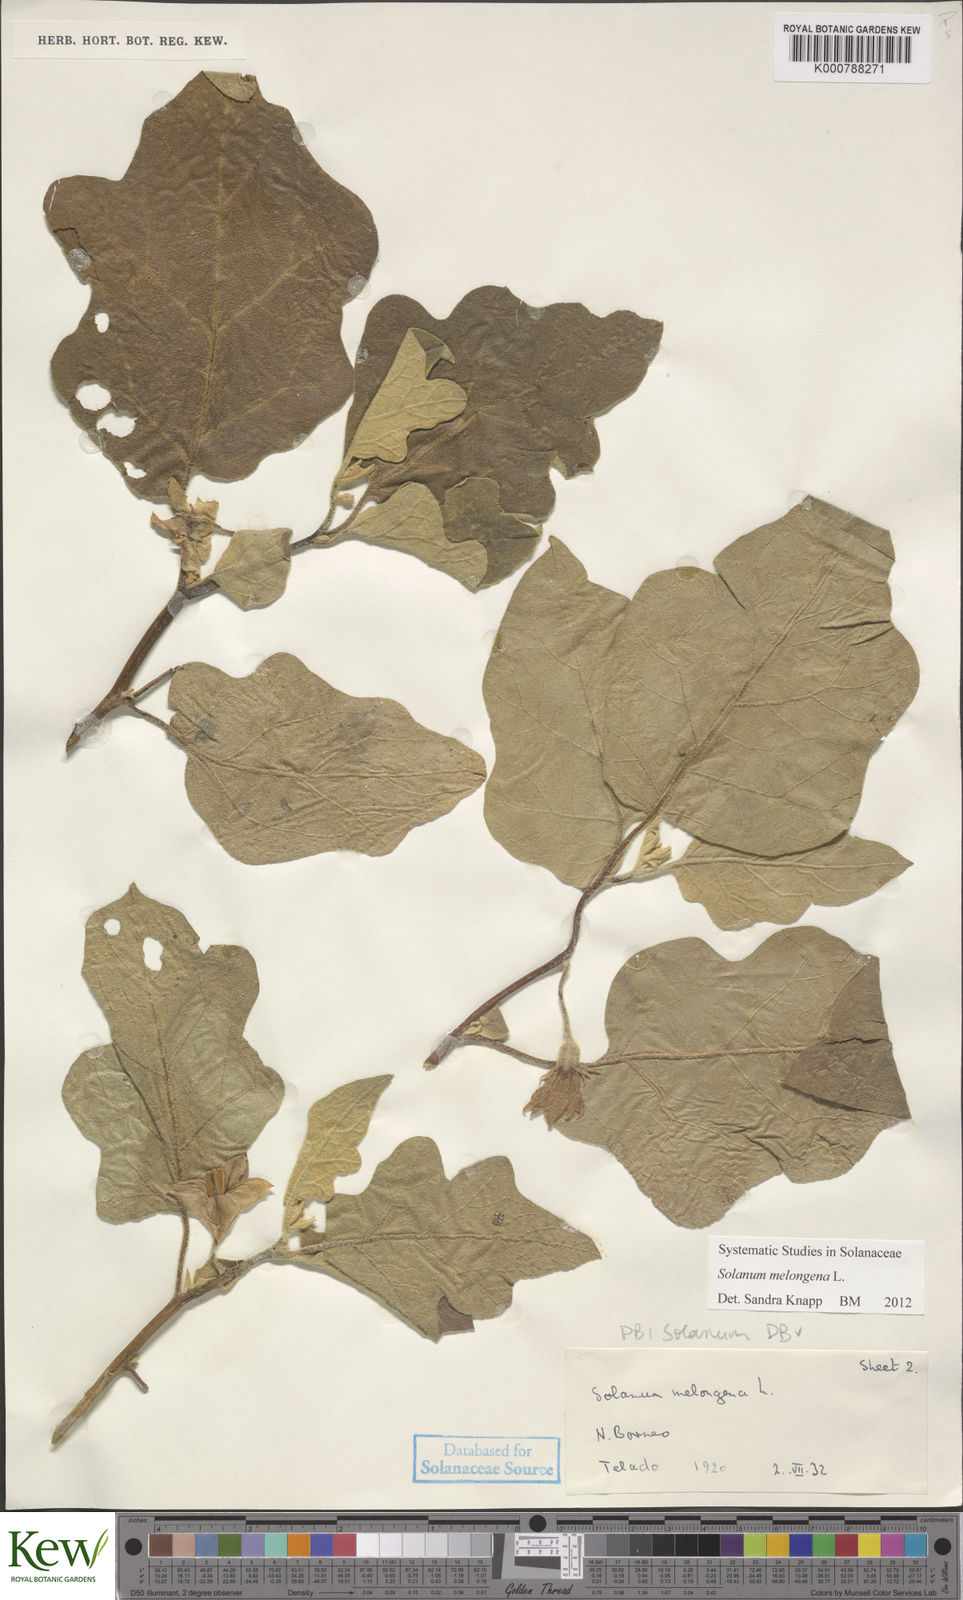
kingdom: Plantae
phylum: Tracheophyta
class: Magnoliopsida
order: Solanales
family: Solanaceae
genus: Solanum
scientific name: Solanum melongena
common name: Eggplant
